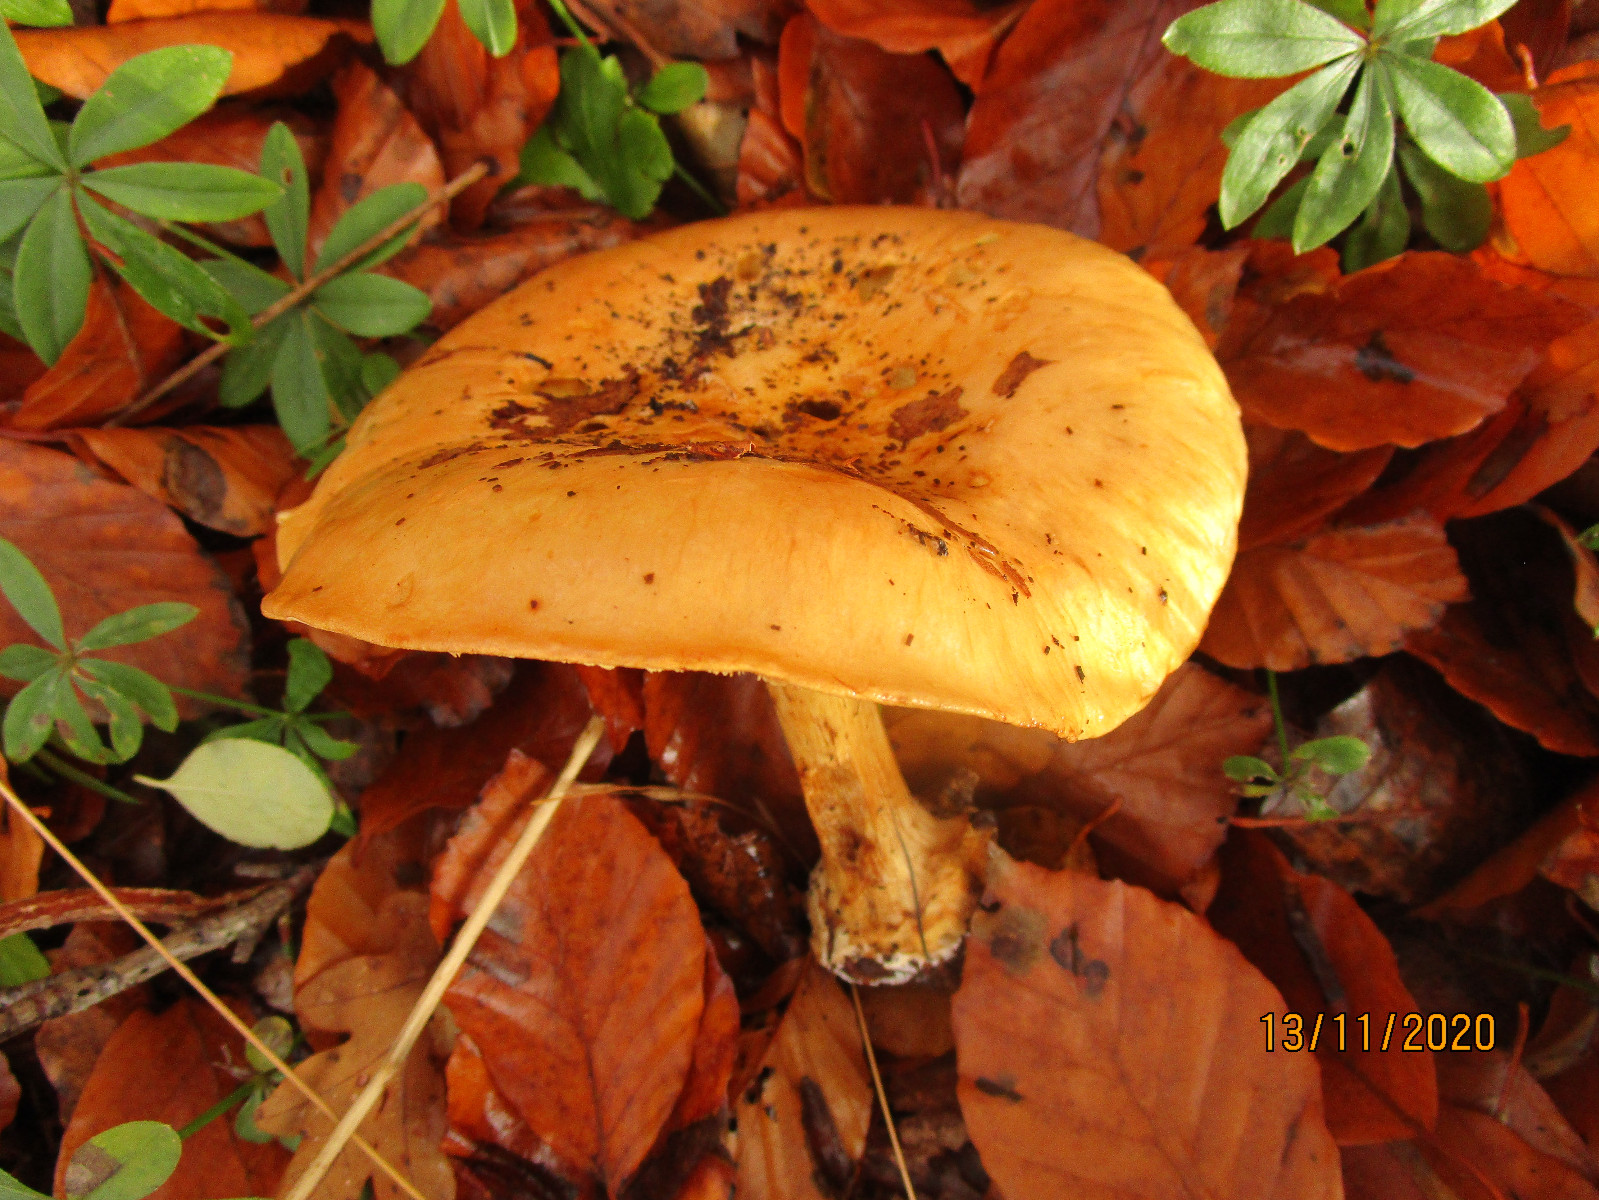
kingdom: Fungi
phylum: Basidiomycota
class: Agaricomycetes
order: Agaricales
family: Cortinariaceae
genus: Calonarius
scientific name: Calonarius alcalinophilus
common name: gyldenbrun slørhat
